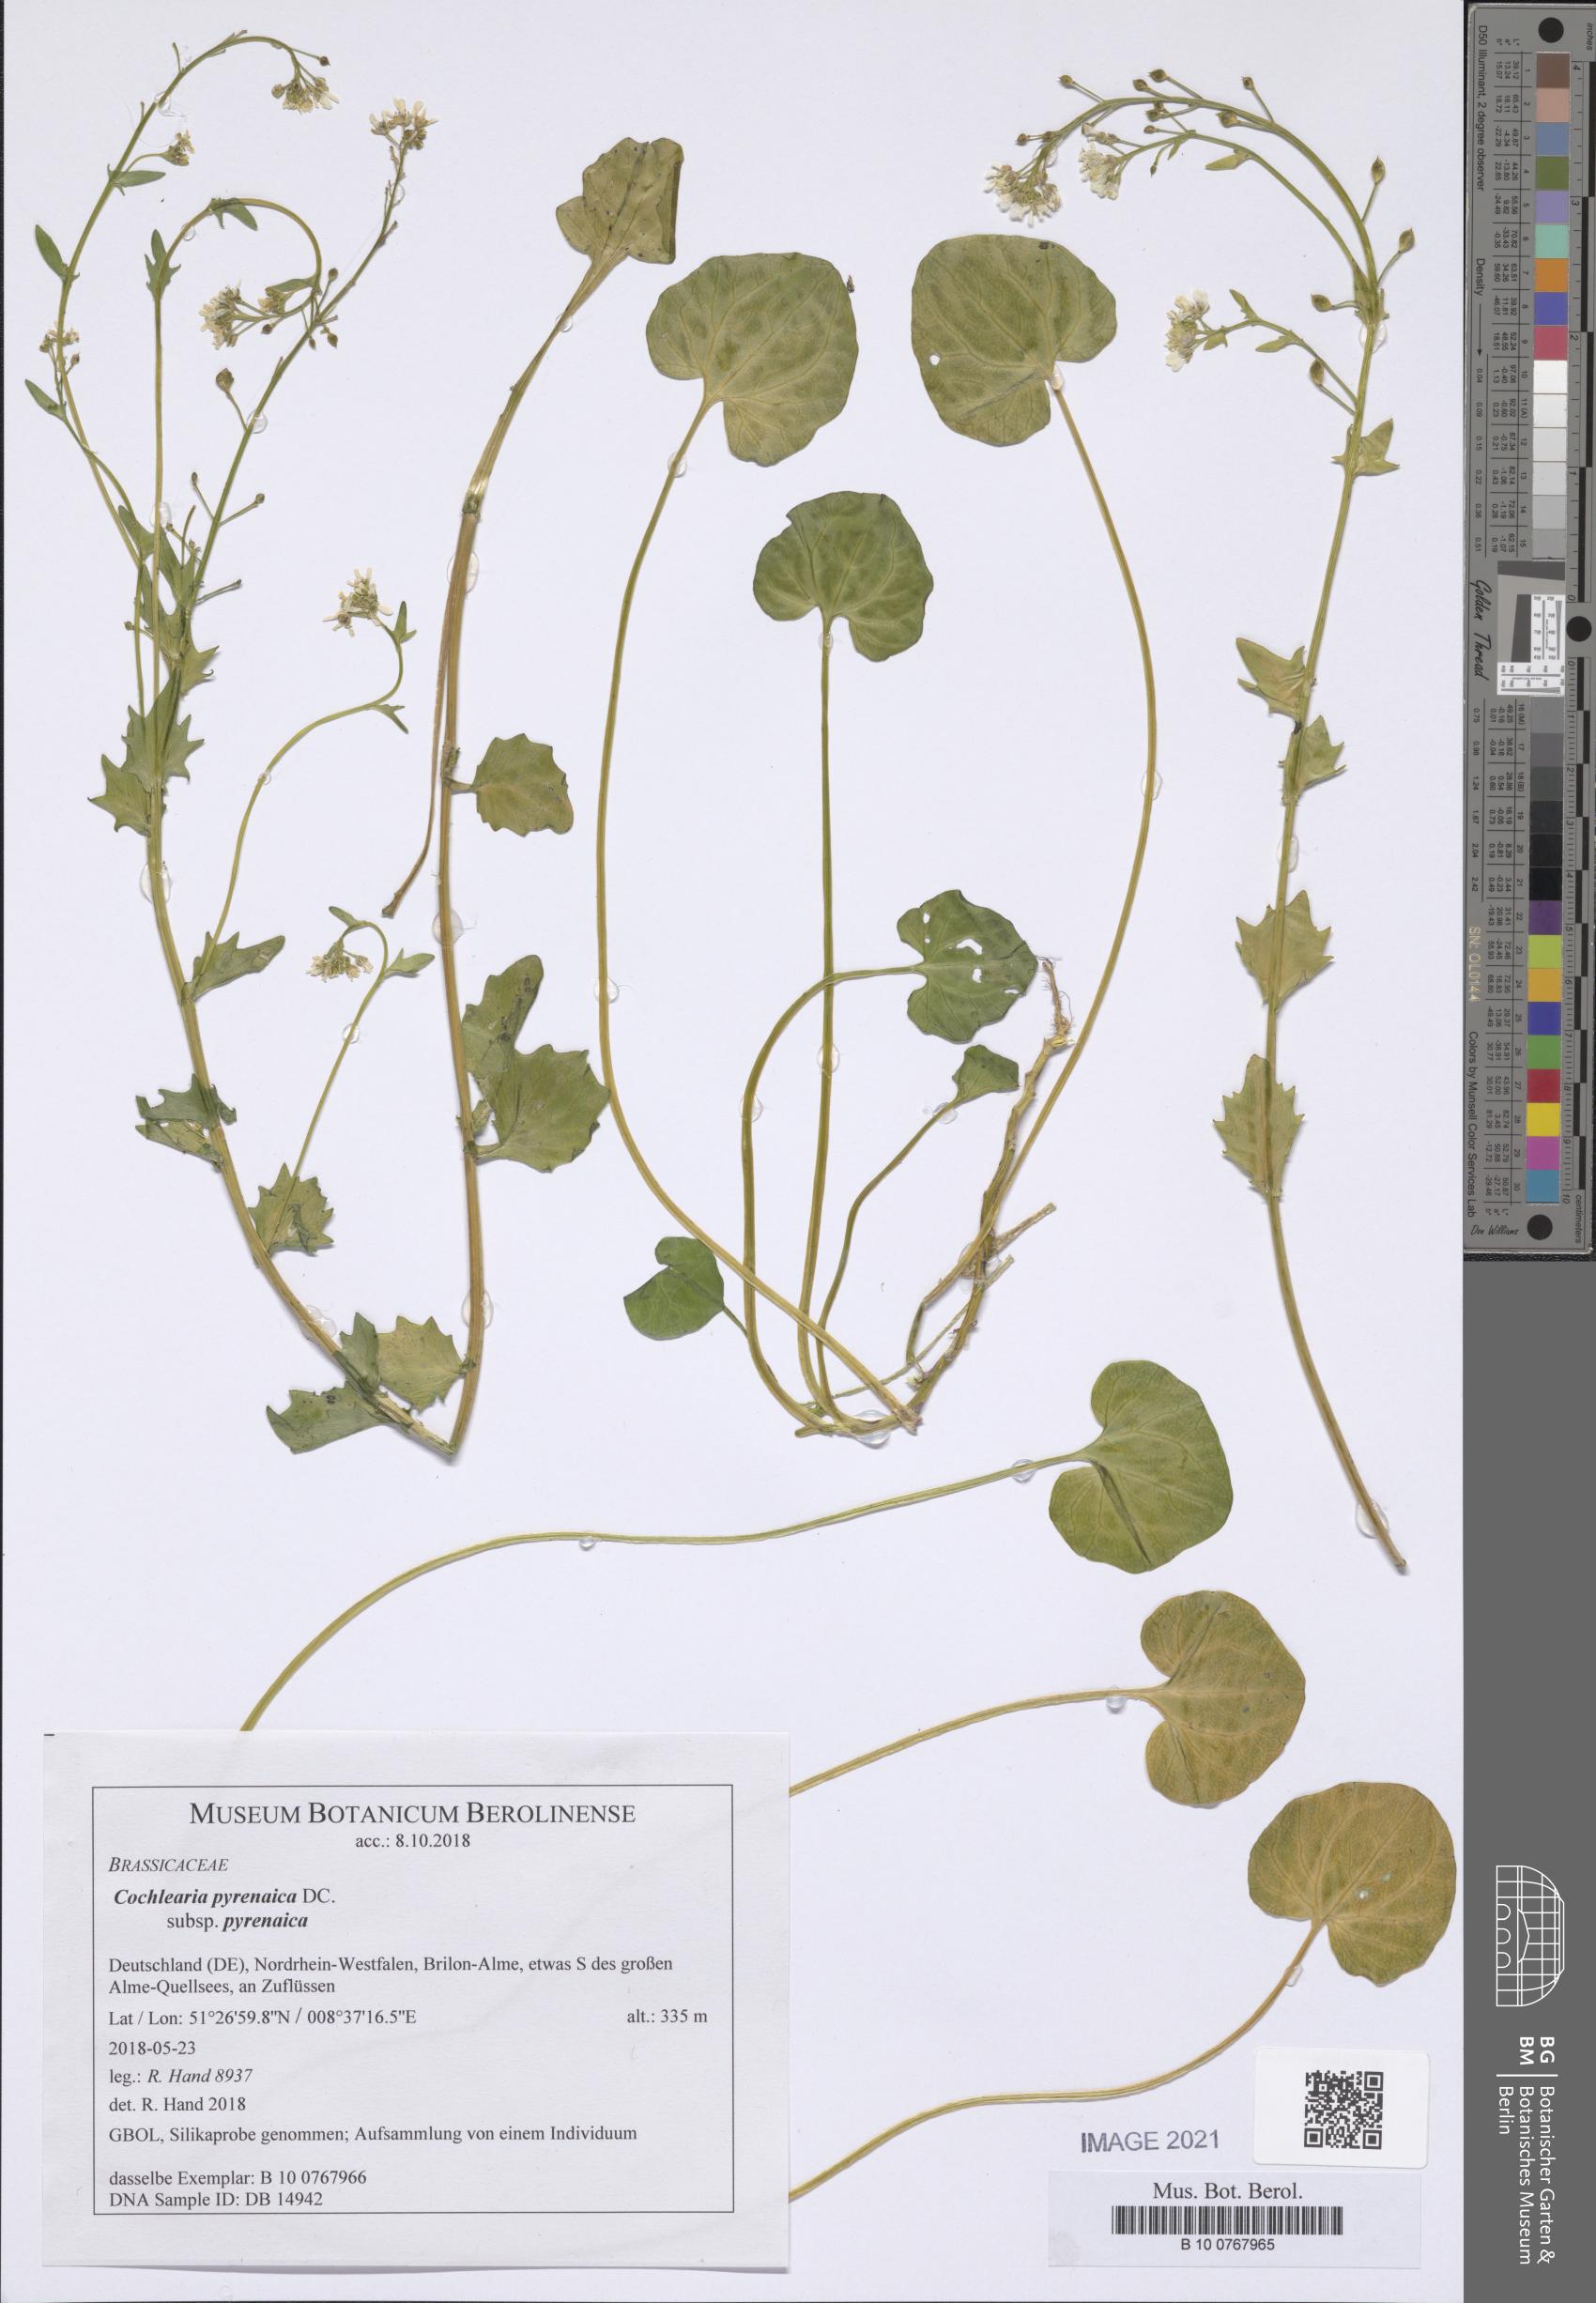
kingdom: Plantae
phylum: Tracheophyta
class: Magnoliopsida
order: Brassicales
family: Brassicaceae
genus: Cochlearia
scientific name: Cochlearia pyrenaica
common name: Upland scurvy-grass
